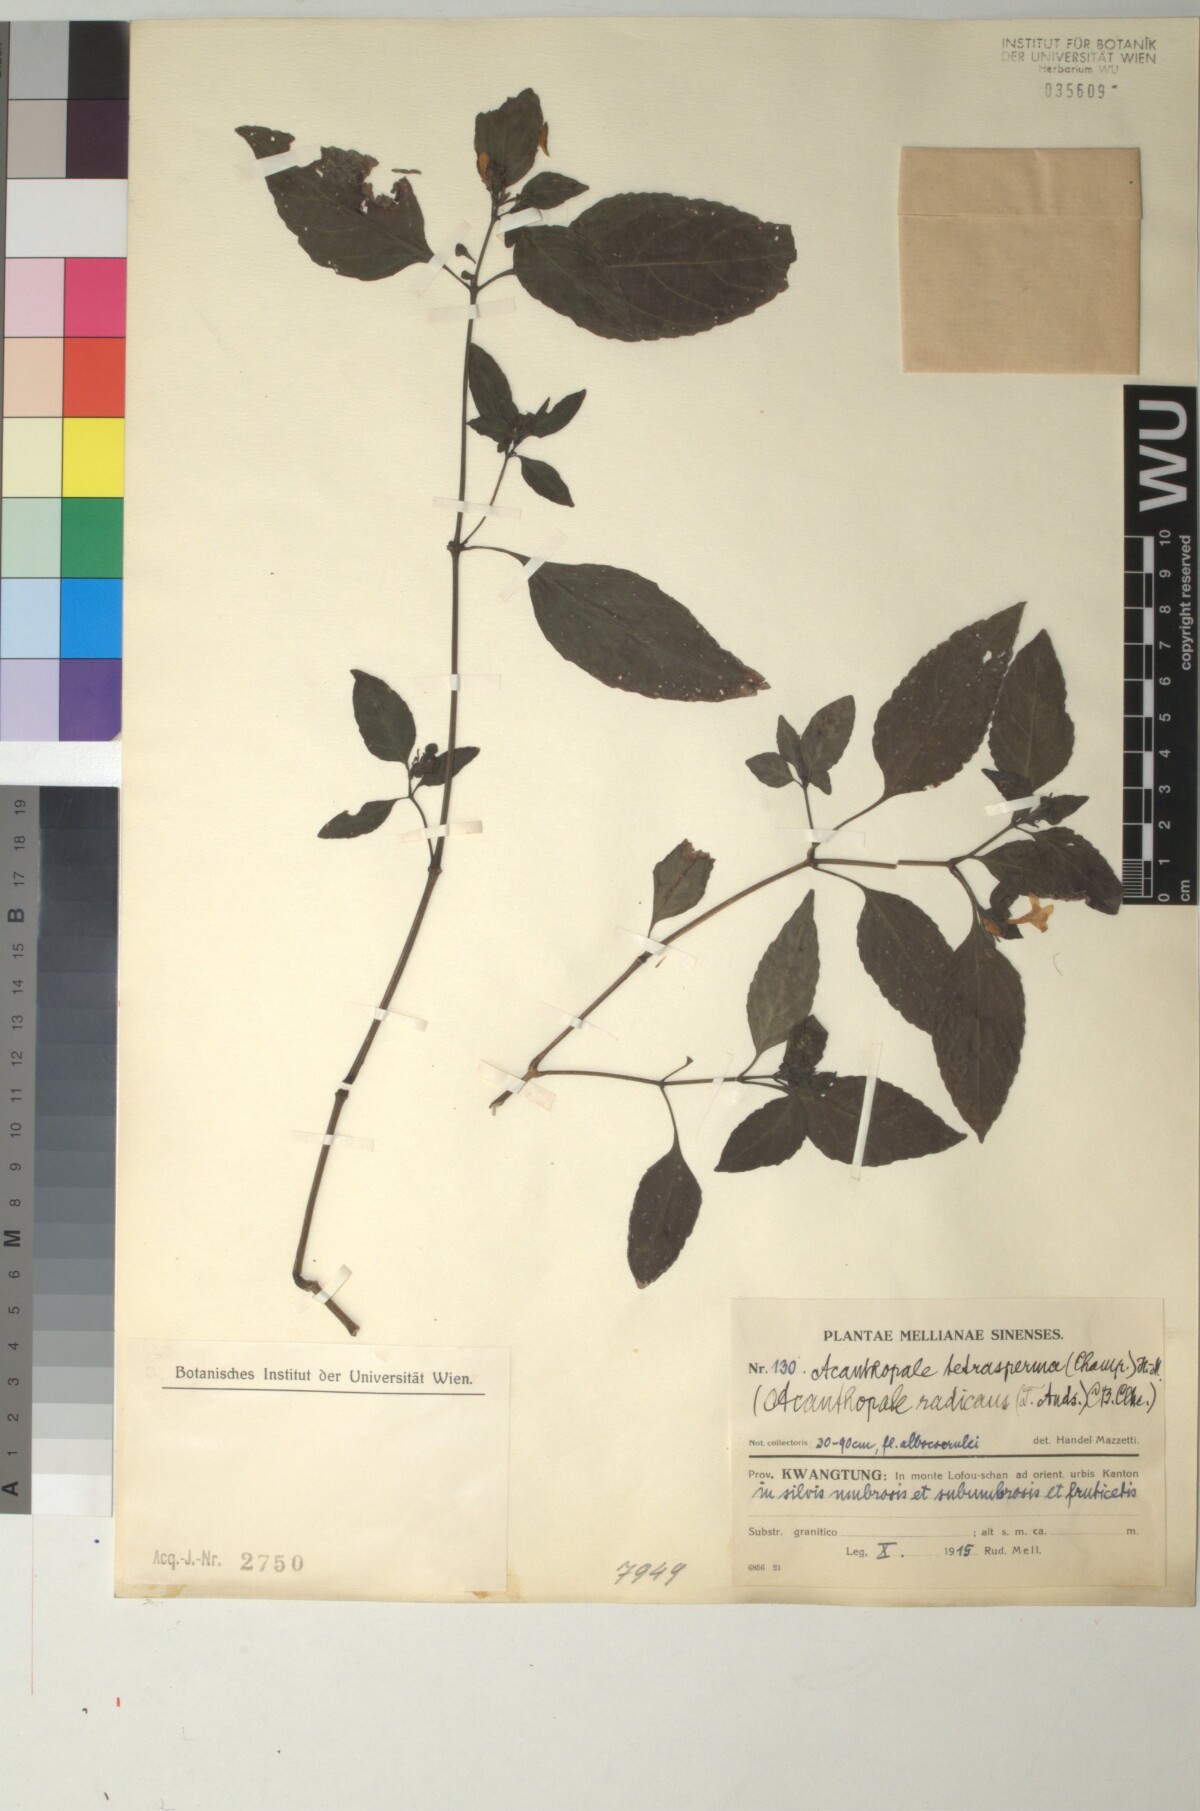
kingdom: Plantae
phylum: Tracheophyta
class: Magnoliopsida
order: Lamiales
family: Acanthaceae
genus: Strobilanthes
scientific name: Strobilanthes tetrasperma
